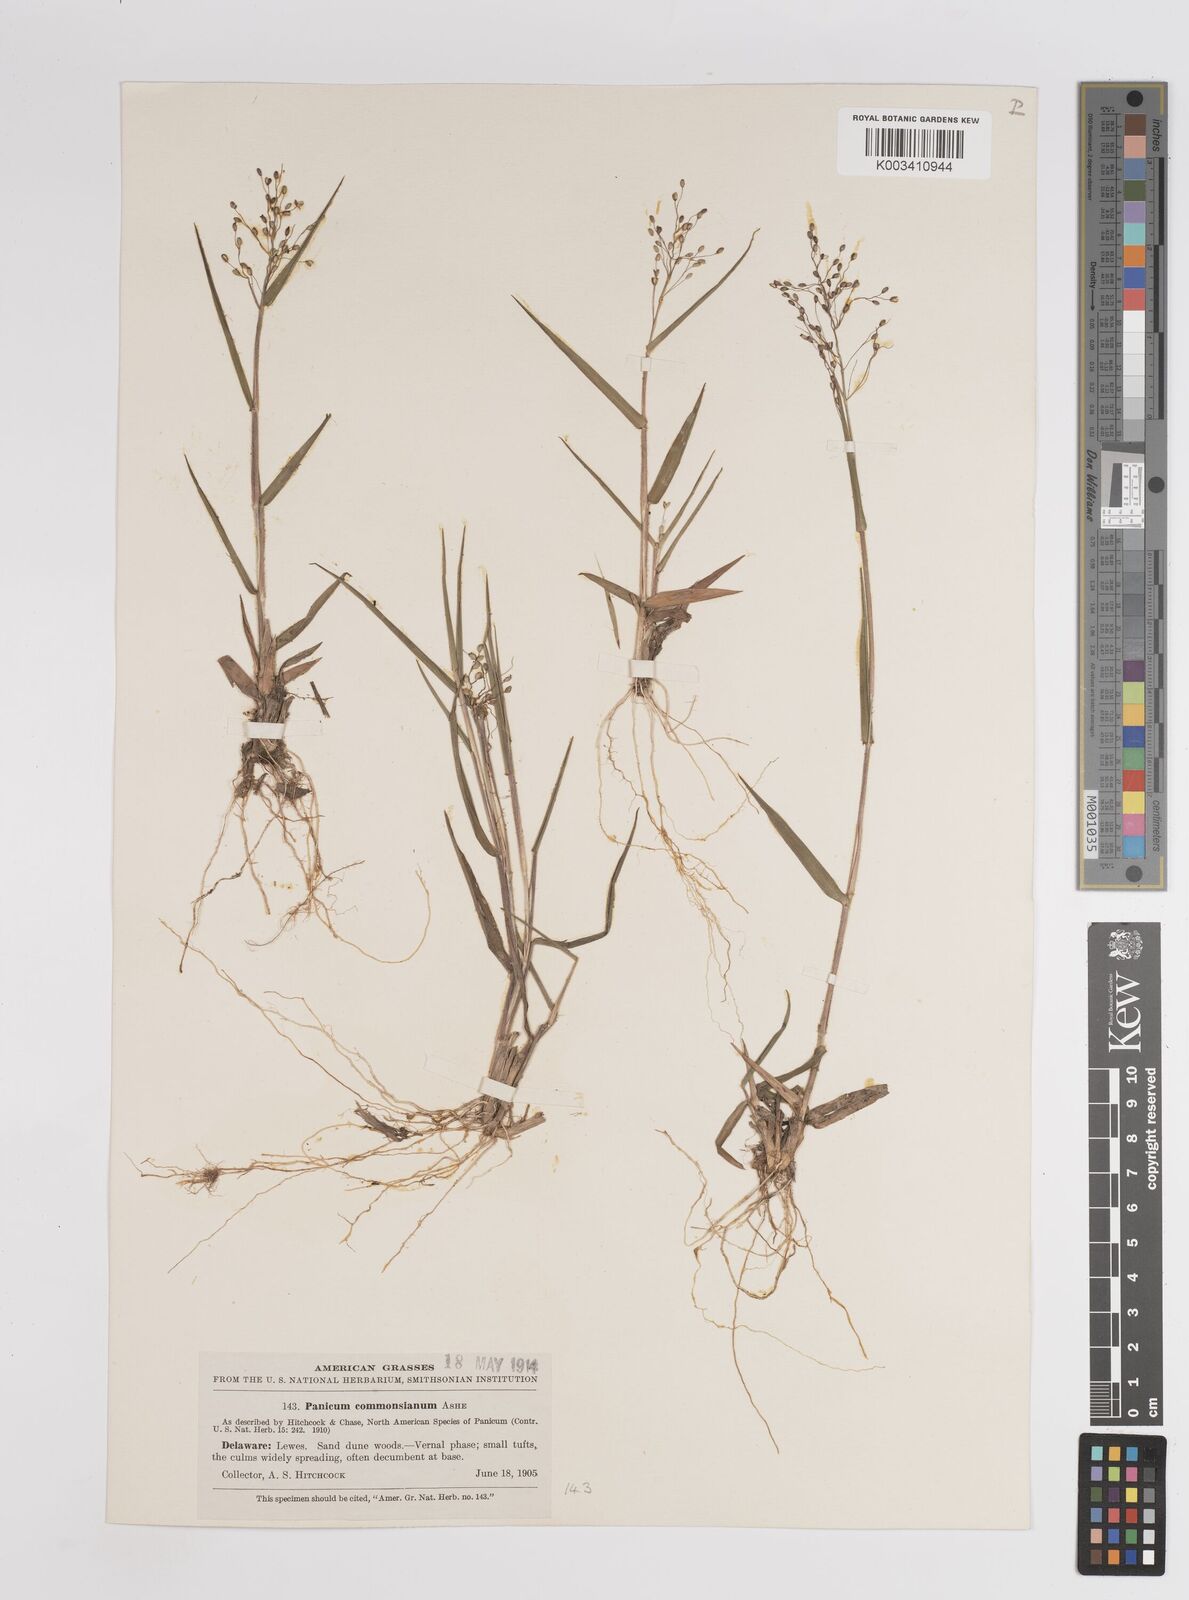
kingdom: Plantae
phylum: Tracheophyta
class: Liliopsida
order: Poales
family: Poaceae
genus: Dichanthelium
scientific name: Dichanthelium commonsianum
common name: Commons' panicgrass
